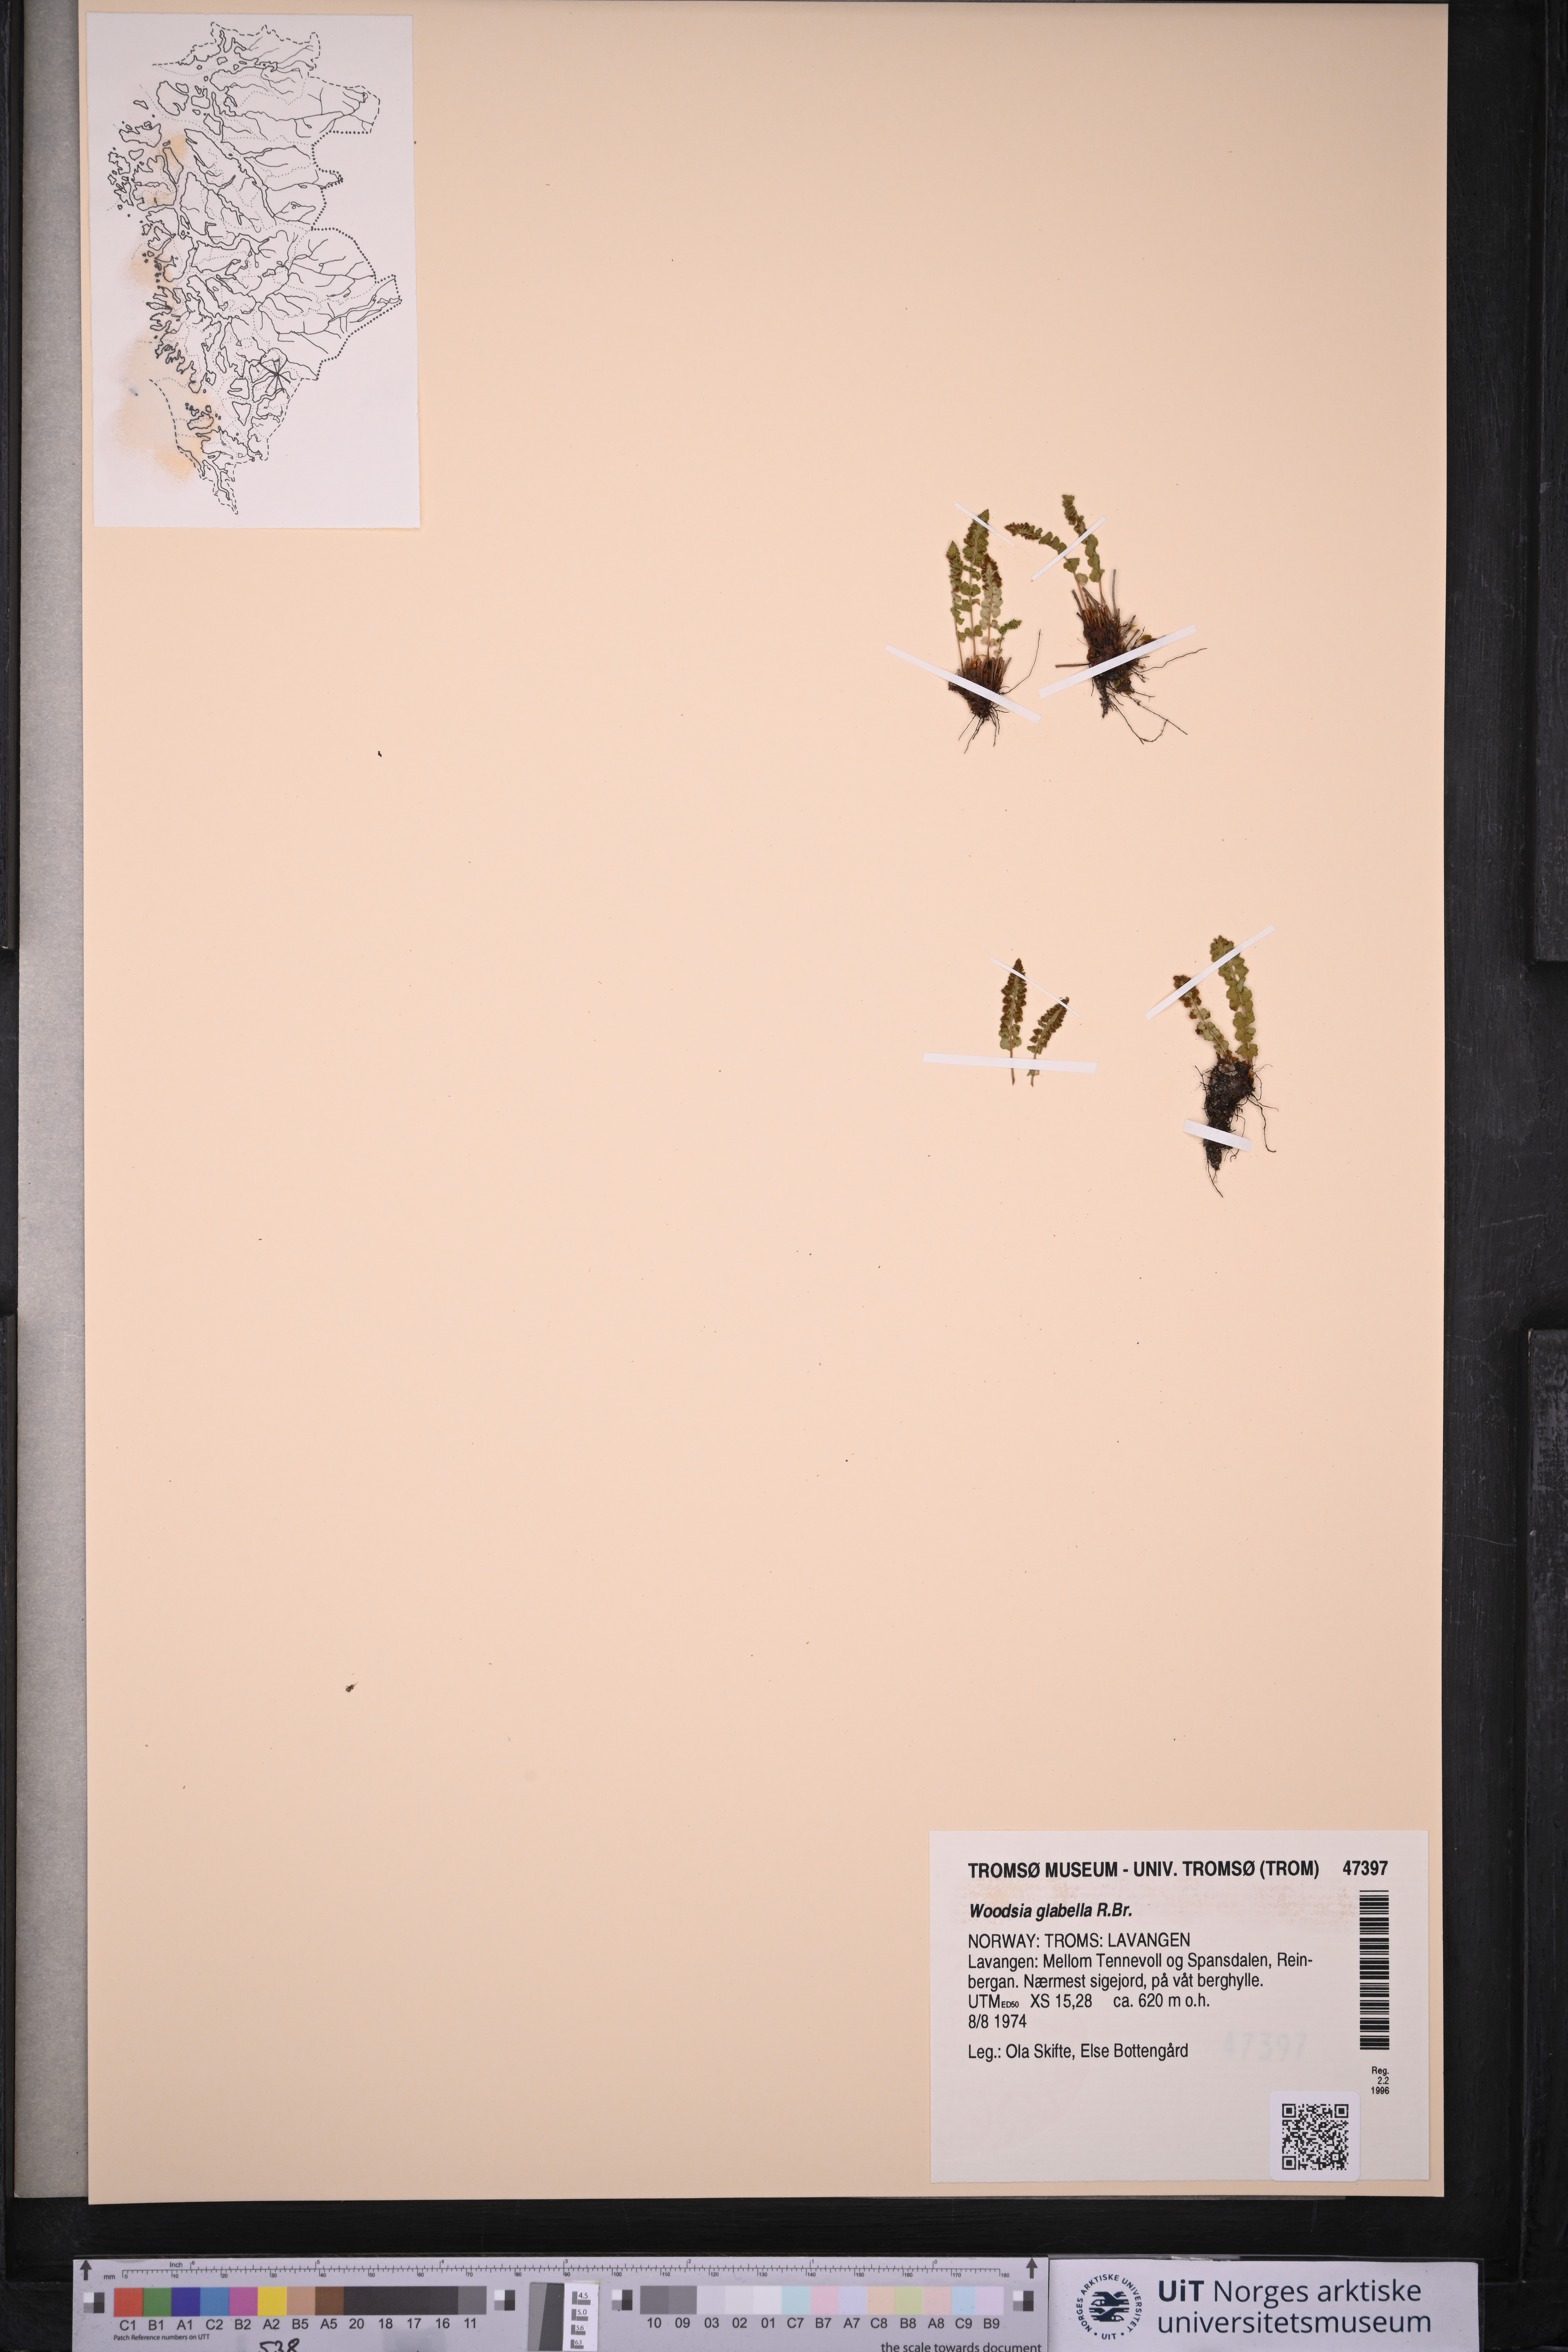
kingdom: Plantae
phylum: Tracheophyta
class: Polypodiopsida
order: Polypodiales
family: Woodsiaceae
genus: Woodsia
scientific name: Woodsia glabella
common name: Smooth woodsia
